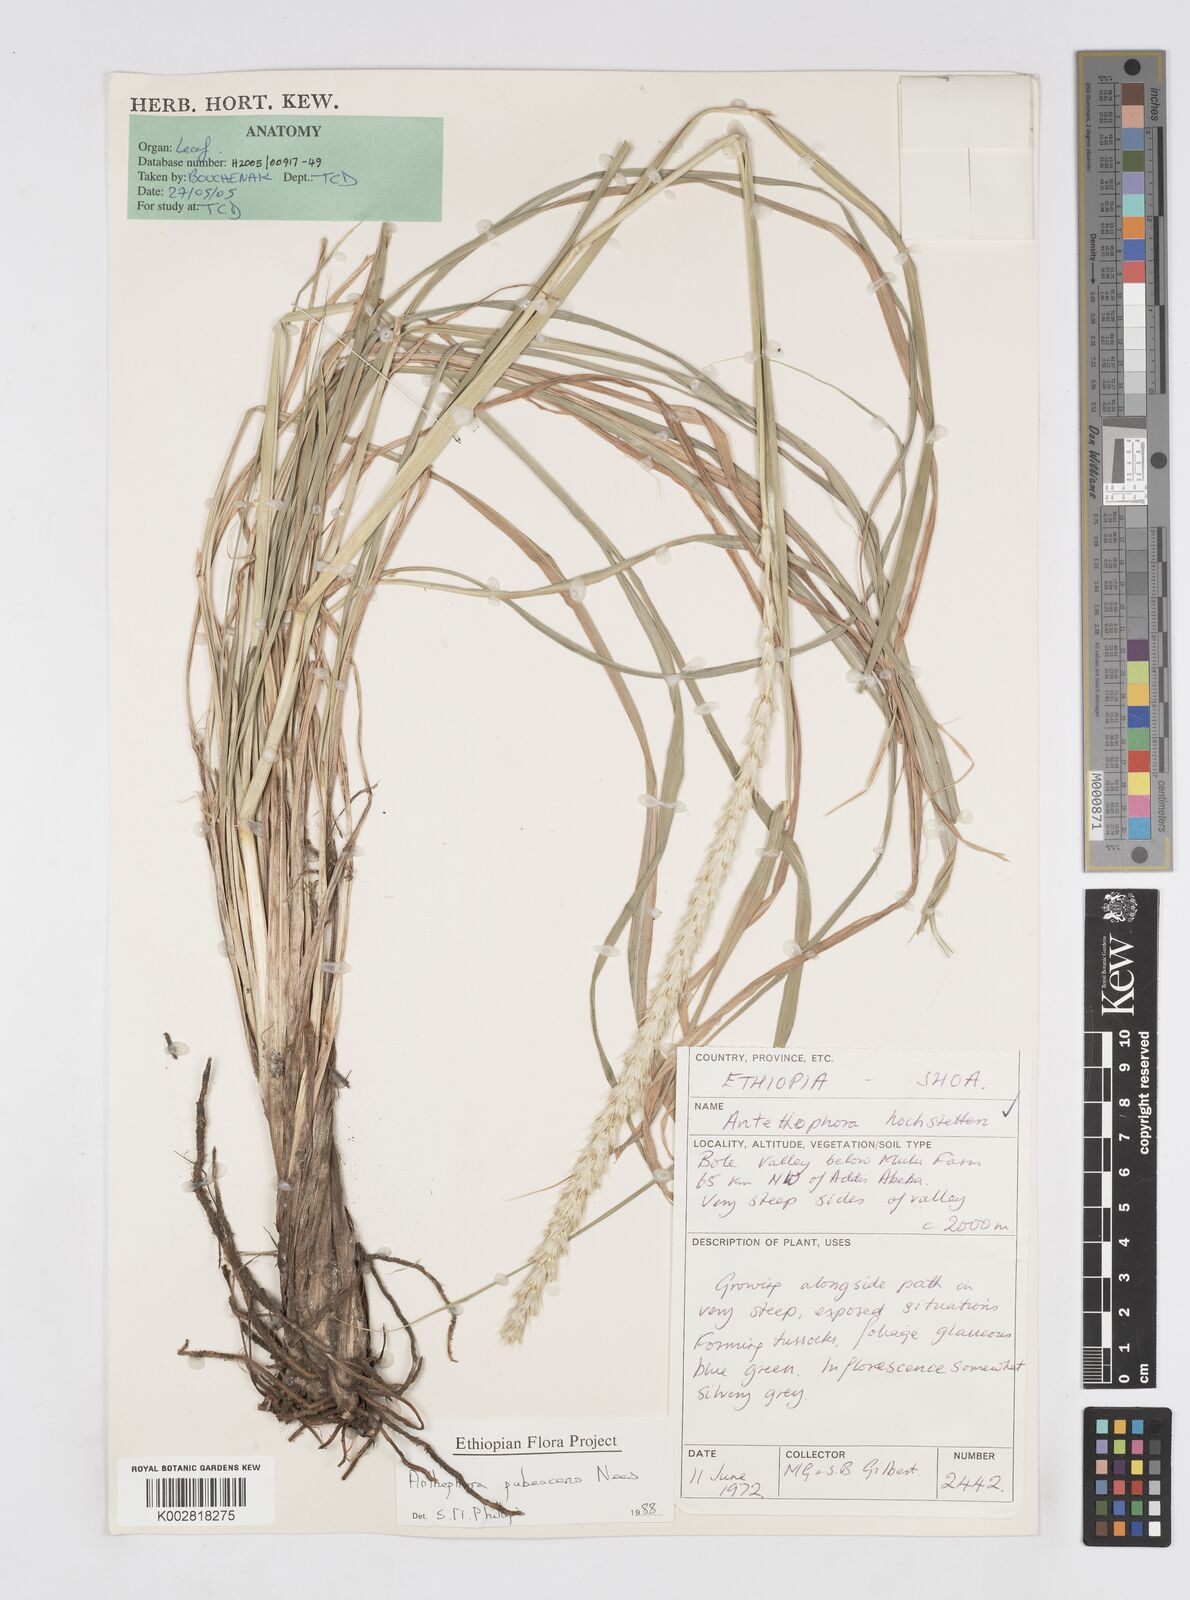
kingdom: Plantae
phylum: Tracheophyta
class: Liliopsida
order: Poales
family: Poaceae
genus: Anthephora
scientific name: Anthephora pubescens
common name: Wool grass
